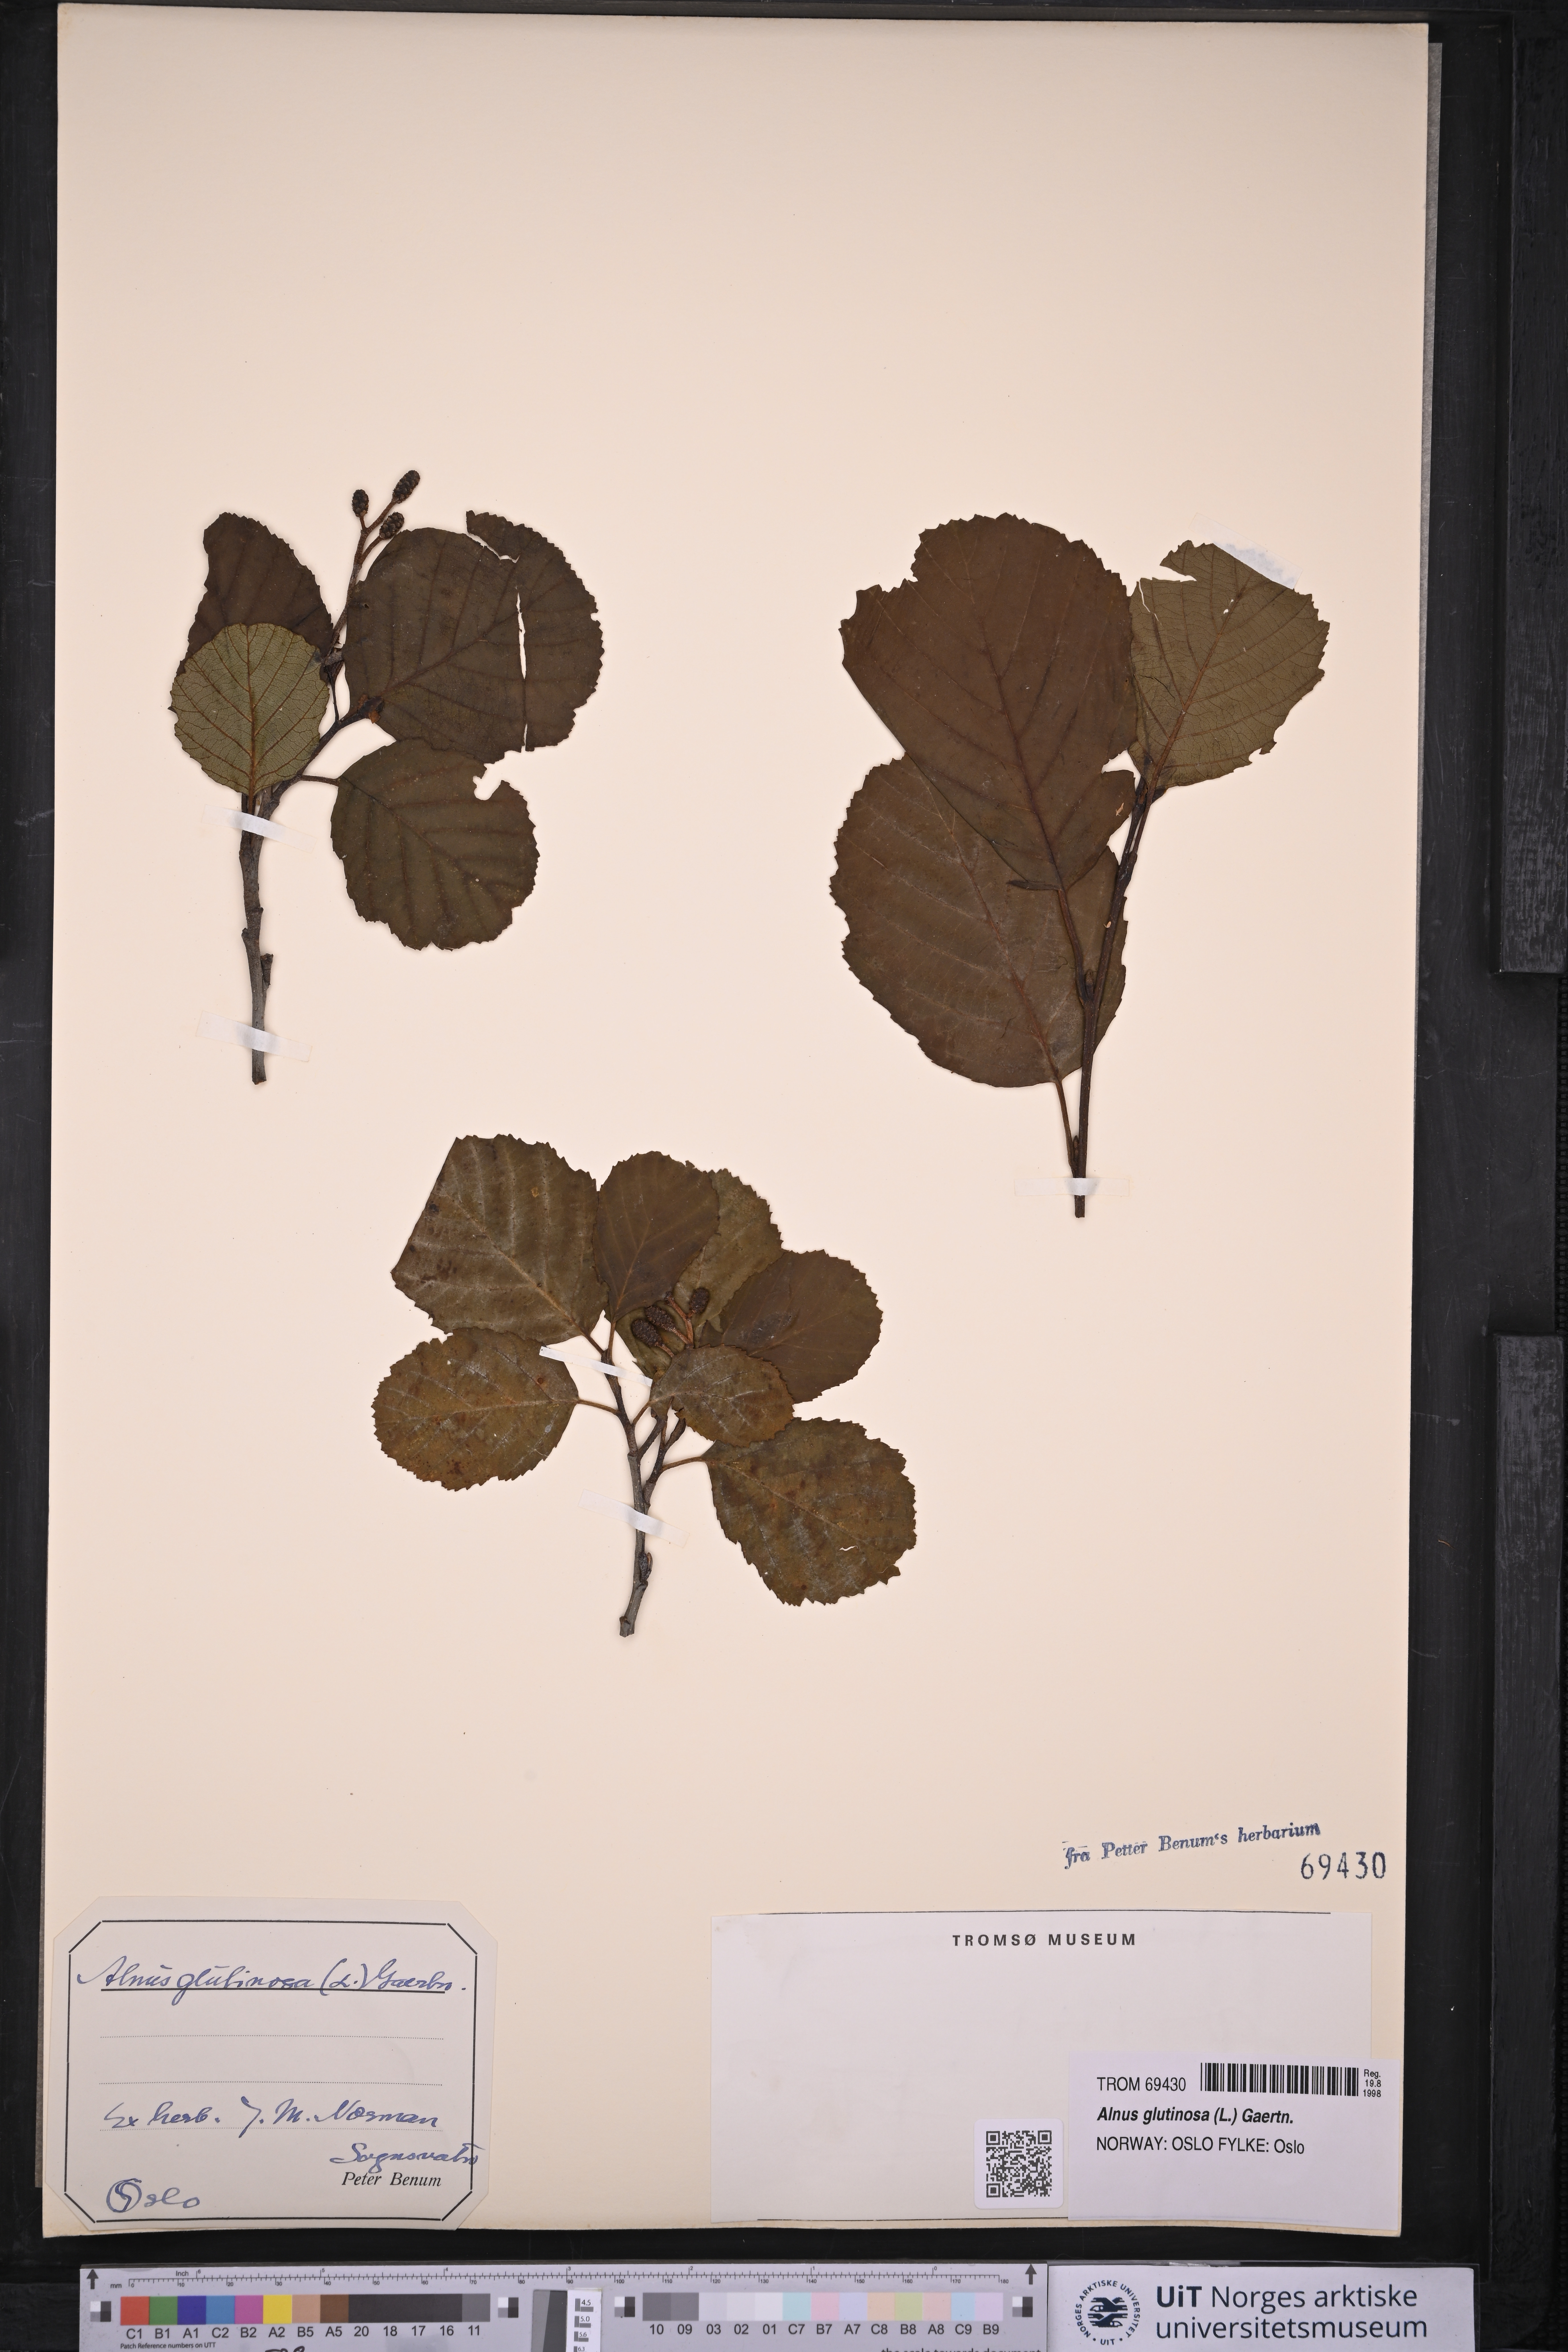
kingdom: Plantae
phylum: Tracheophyta
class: Magnoliopsida
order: Fagales
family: Betulaceae
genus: Alnus
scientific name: Alnus glutinosa
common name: Black alder
